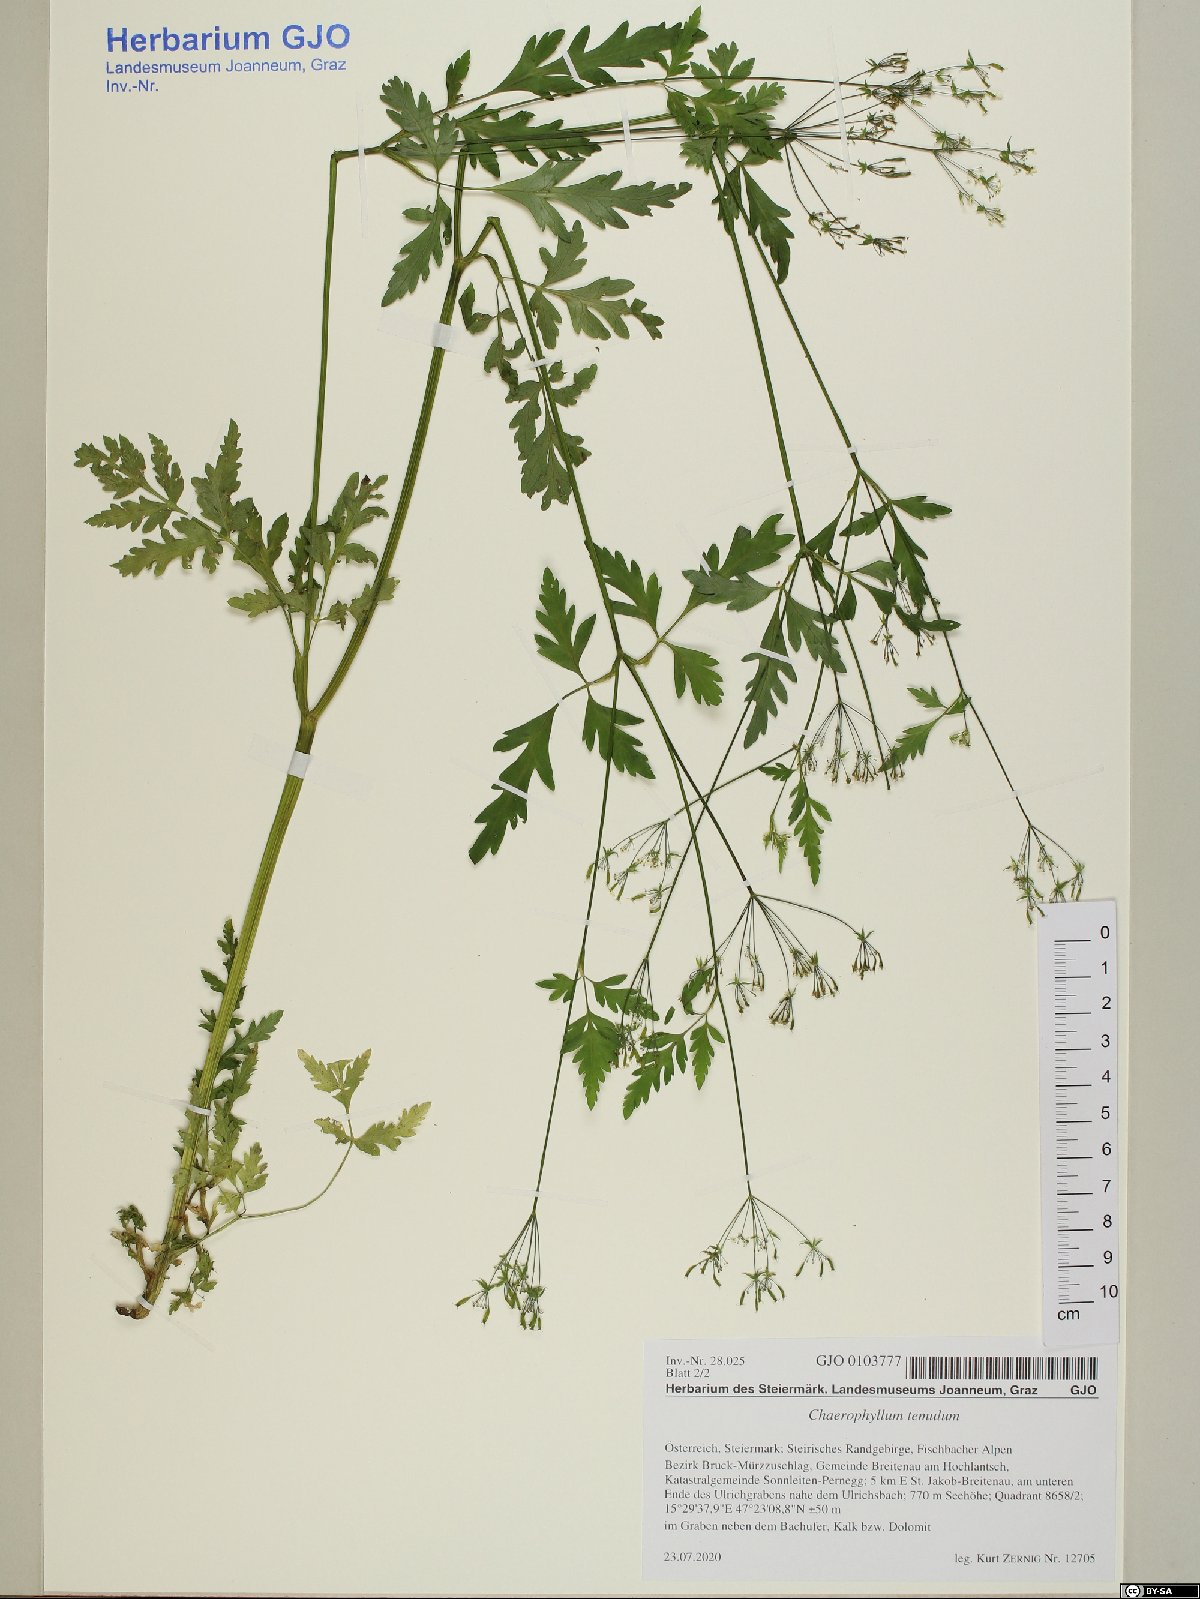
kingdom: Plantae
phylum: Tracheophyta
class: Magnoliopsida
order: Apiales
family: Apiaceae
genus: Chaerophyllum
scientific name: Chaerophyllum temulum
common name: Rough chervil
